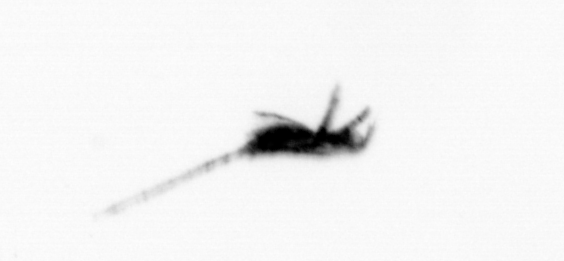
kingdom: Animalia
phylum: Arthropoda
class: Copepoda
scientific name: Copepoda
